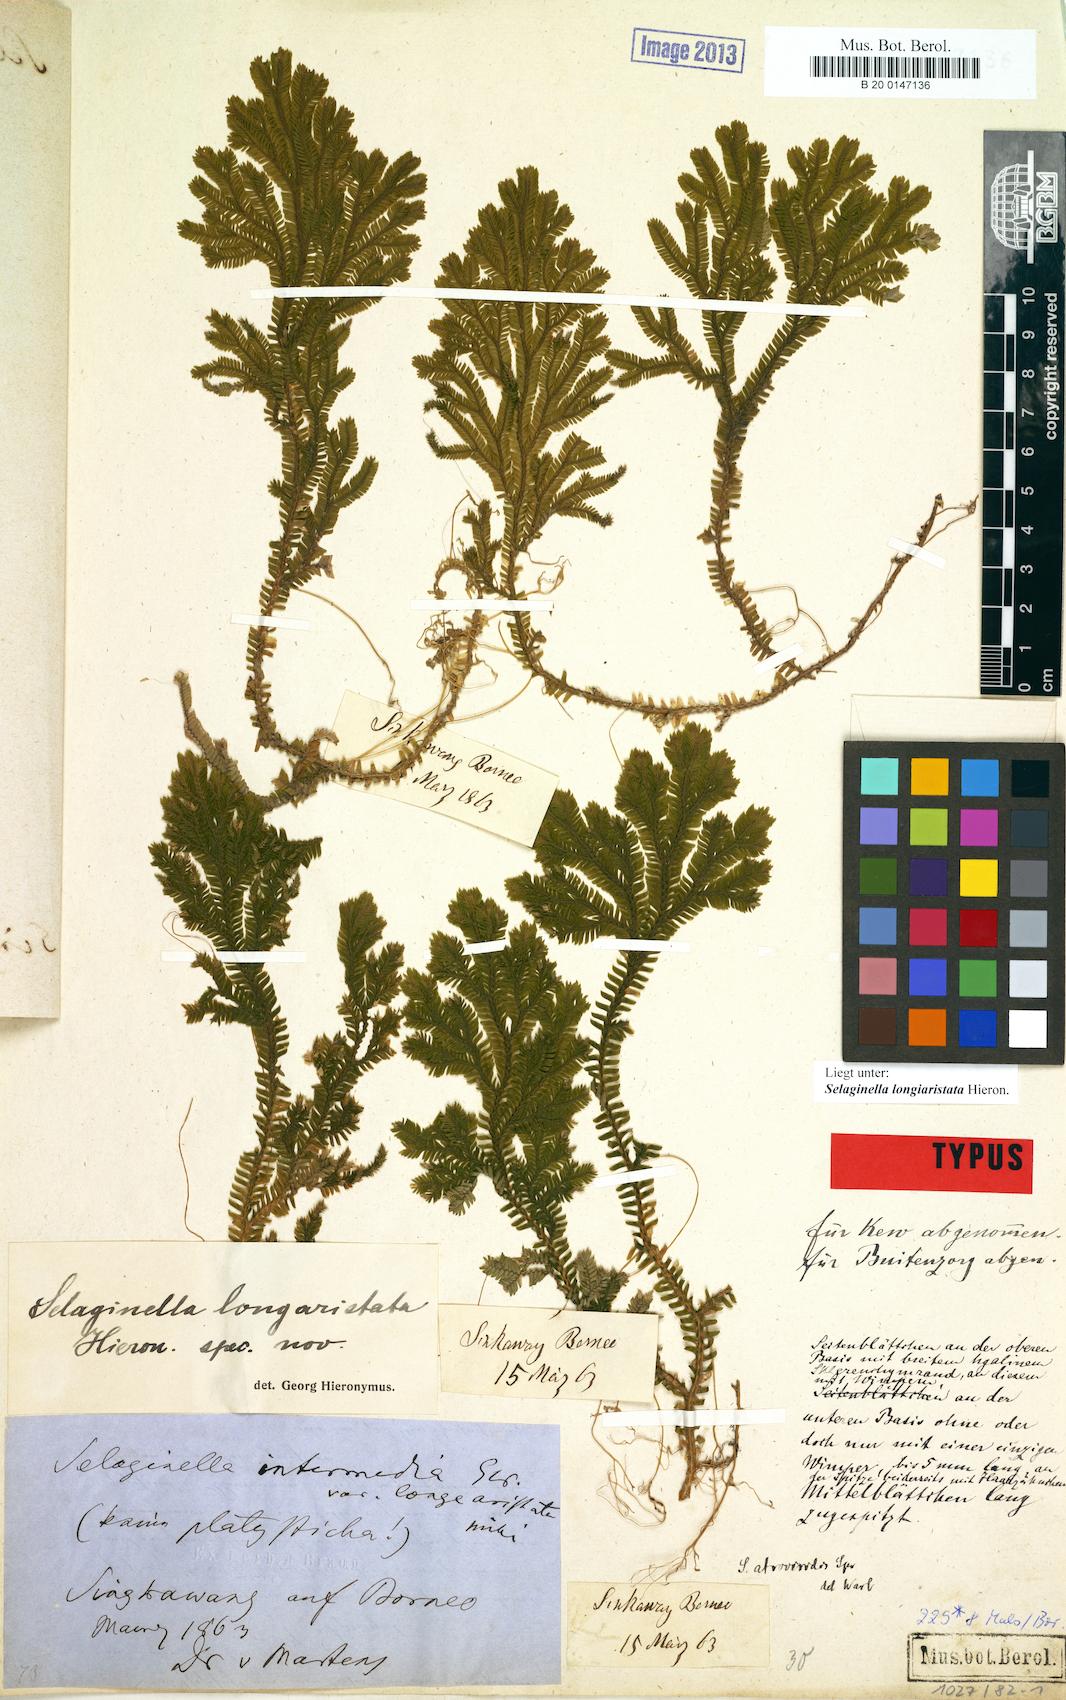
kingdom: Plantae
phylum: Tracheophyta
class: Lycopodiopsida
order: Selaginellales
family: Selaginellaceae
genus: Selaginella
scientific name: Selaginella longiaristata
